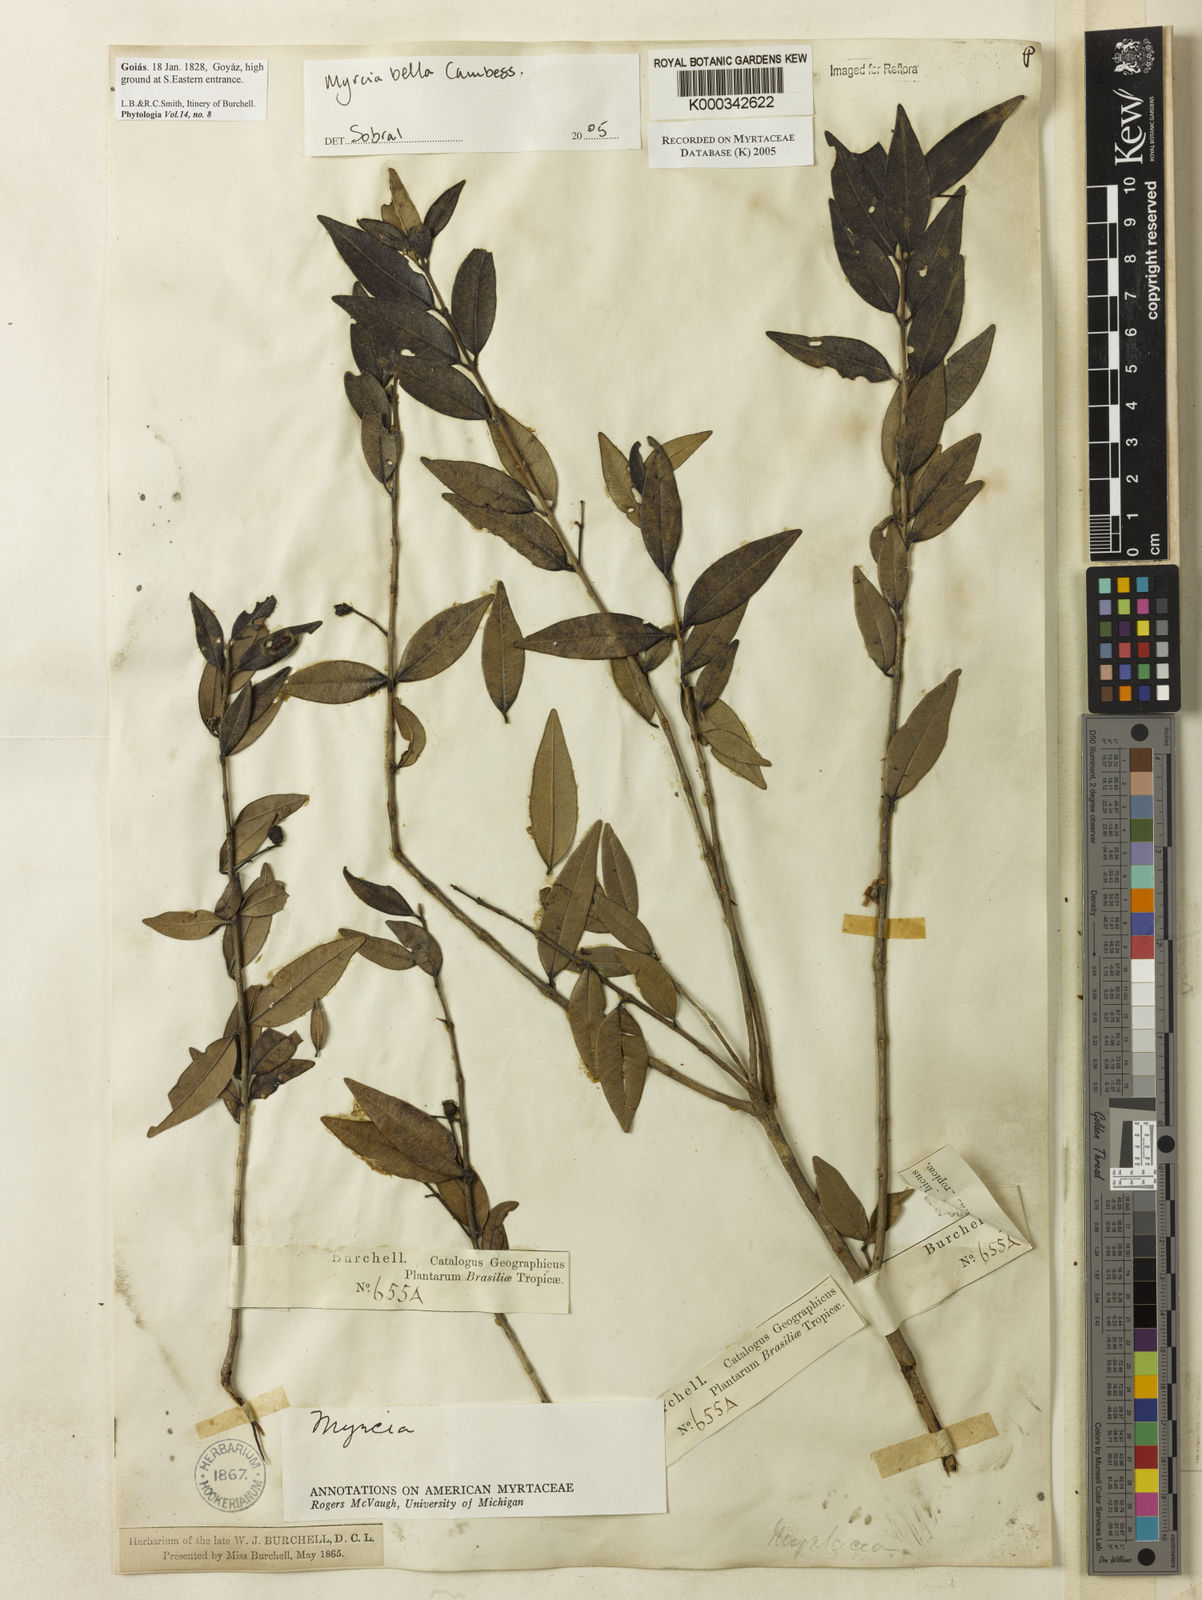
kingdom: Plantae
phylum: Tracheophyta
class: Magnoliopsida
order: Myrtales
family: Myrtaceae
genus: Myrcia
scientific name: Myrcia bella
